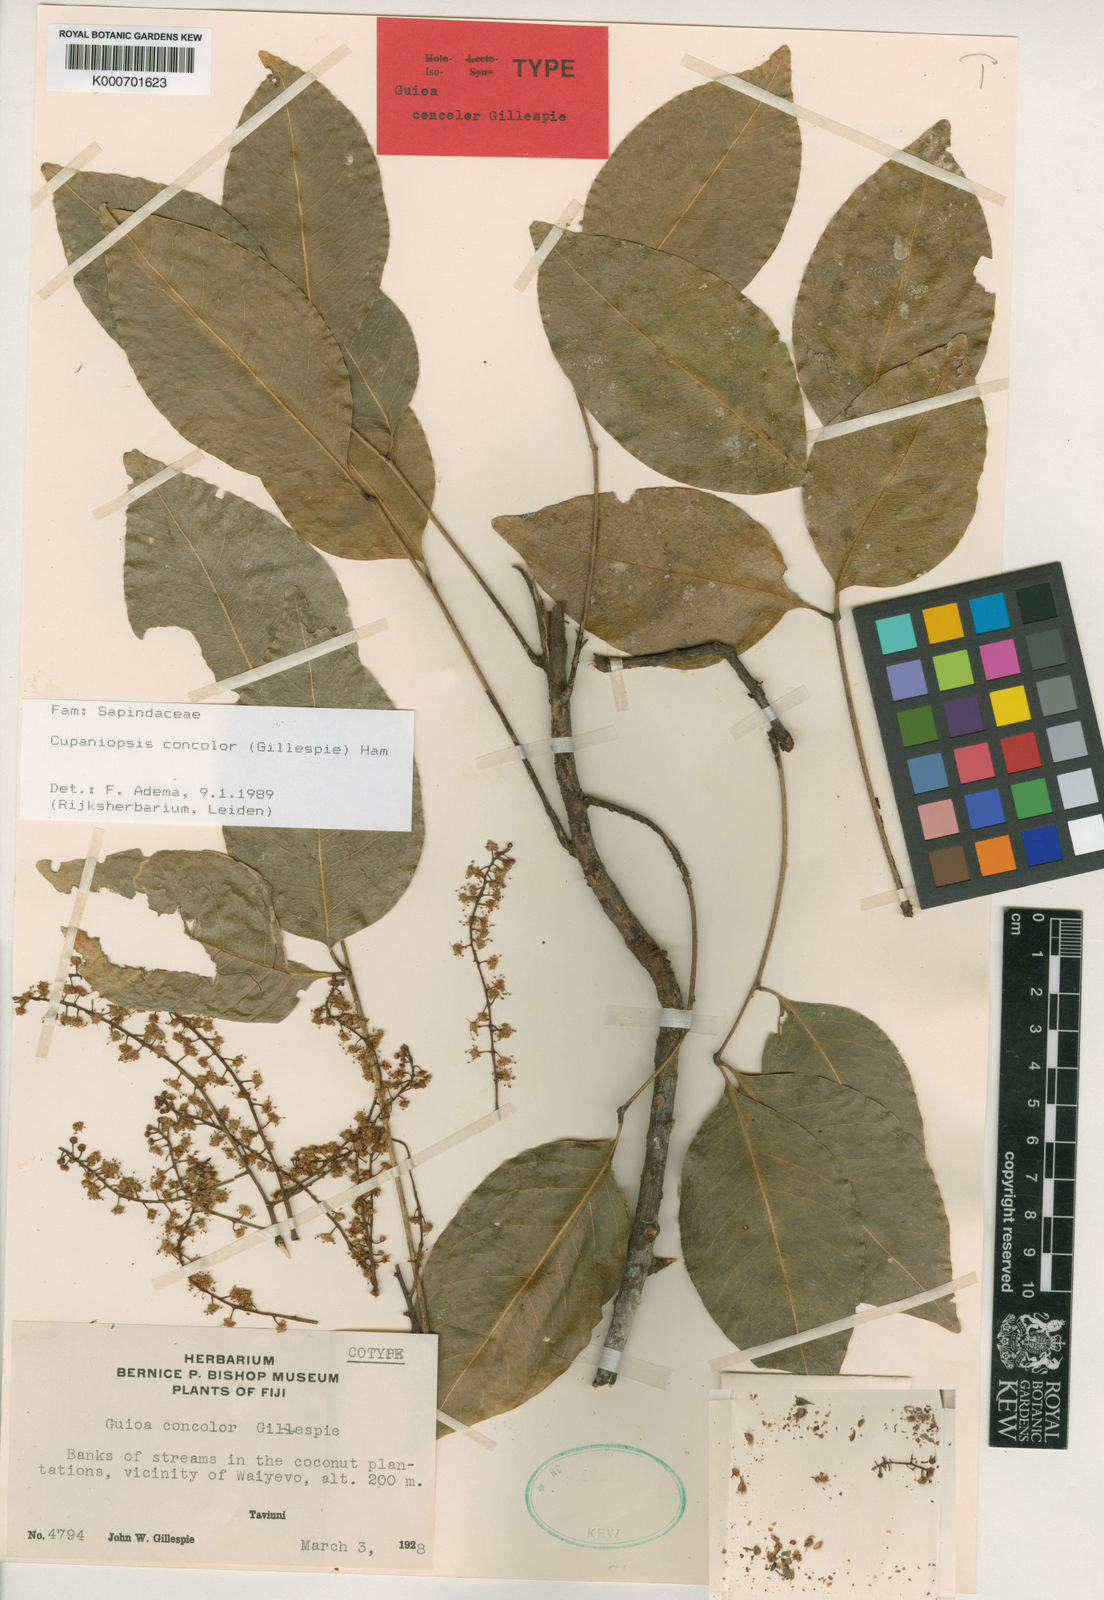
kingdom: Plantae
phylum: Tracheophyta
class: Magnoliopsida
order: Sapindales
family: Sapindaceae
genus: Lepidocupania
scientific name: Lepidocupania concolor
